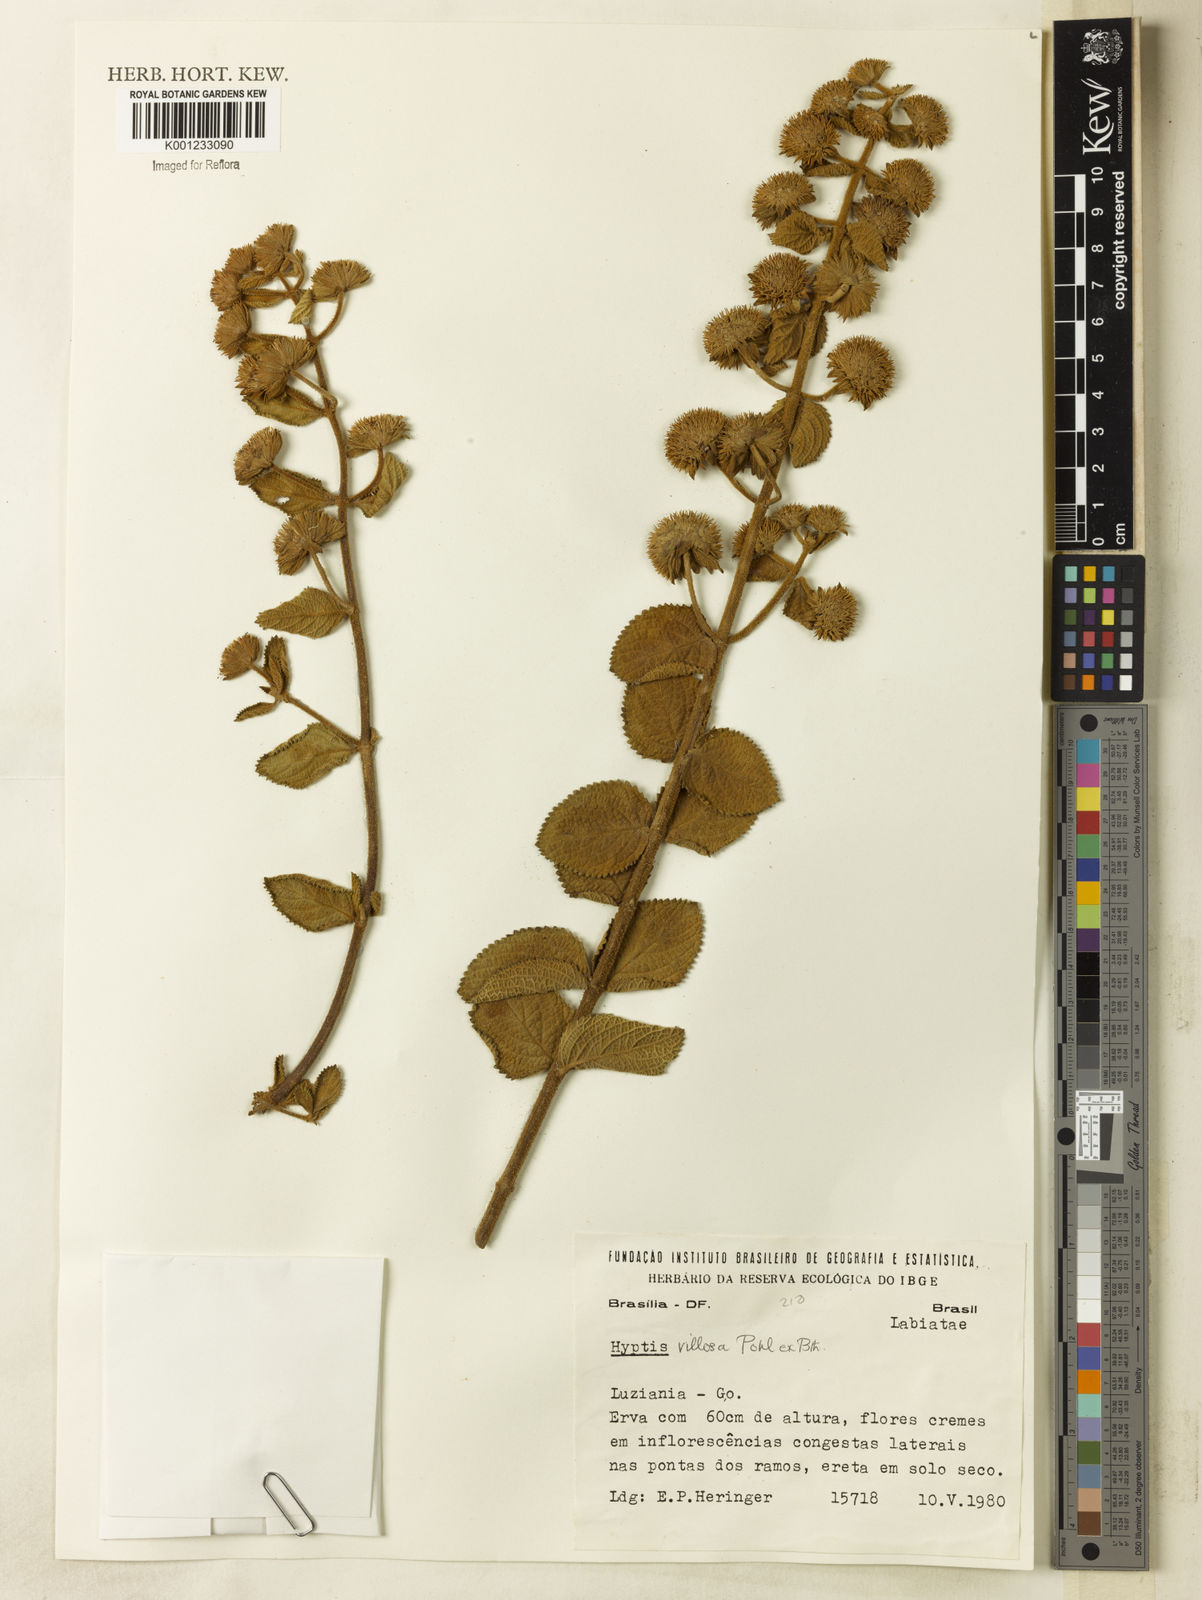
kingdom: Plantae
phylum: Tracheophyta
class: Magnoliopsida
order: Lamiales
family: Lamiaceae
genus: Hyptis
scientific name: Hyptis villosa
